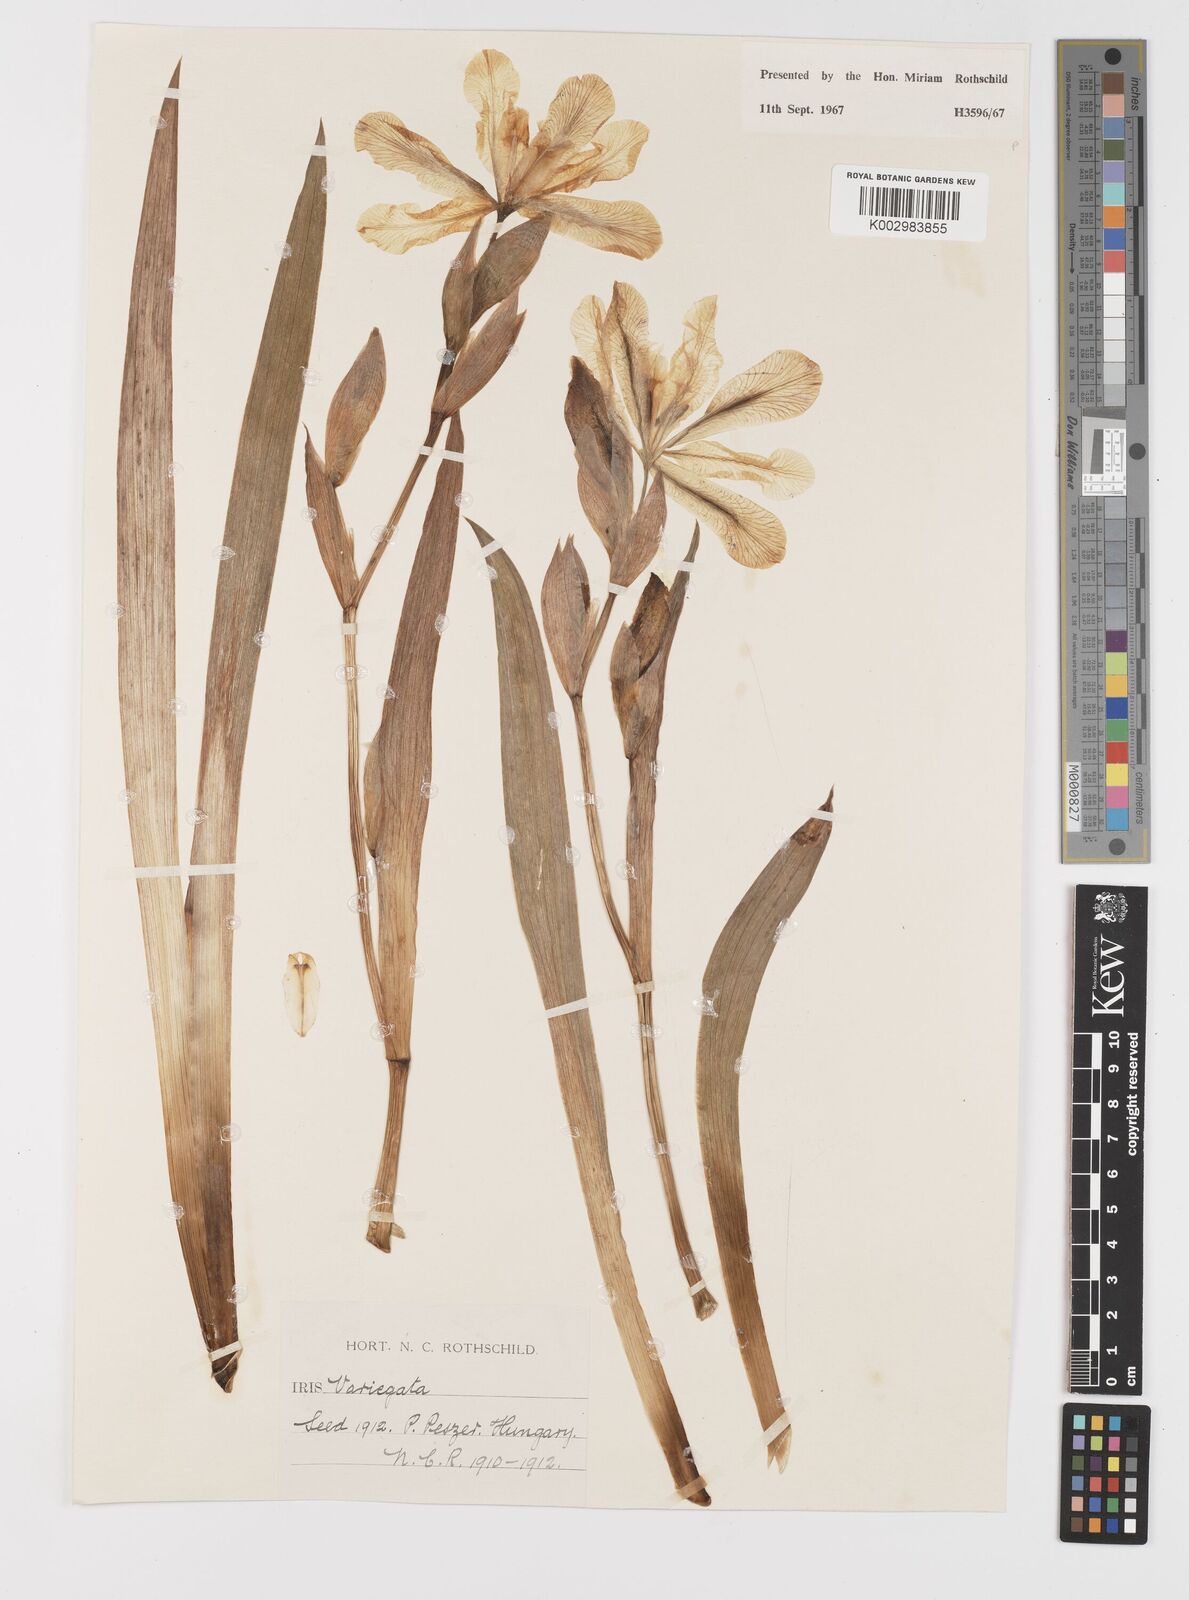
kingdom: Plantae
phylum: Tracheophyta
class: Liliopsida
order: Asparagales
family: Iridaceae
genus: Iris
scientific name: Iris variegata
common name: Hungarian iris
